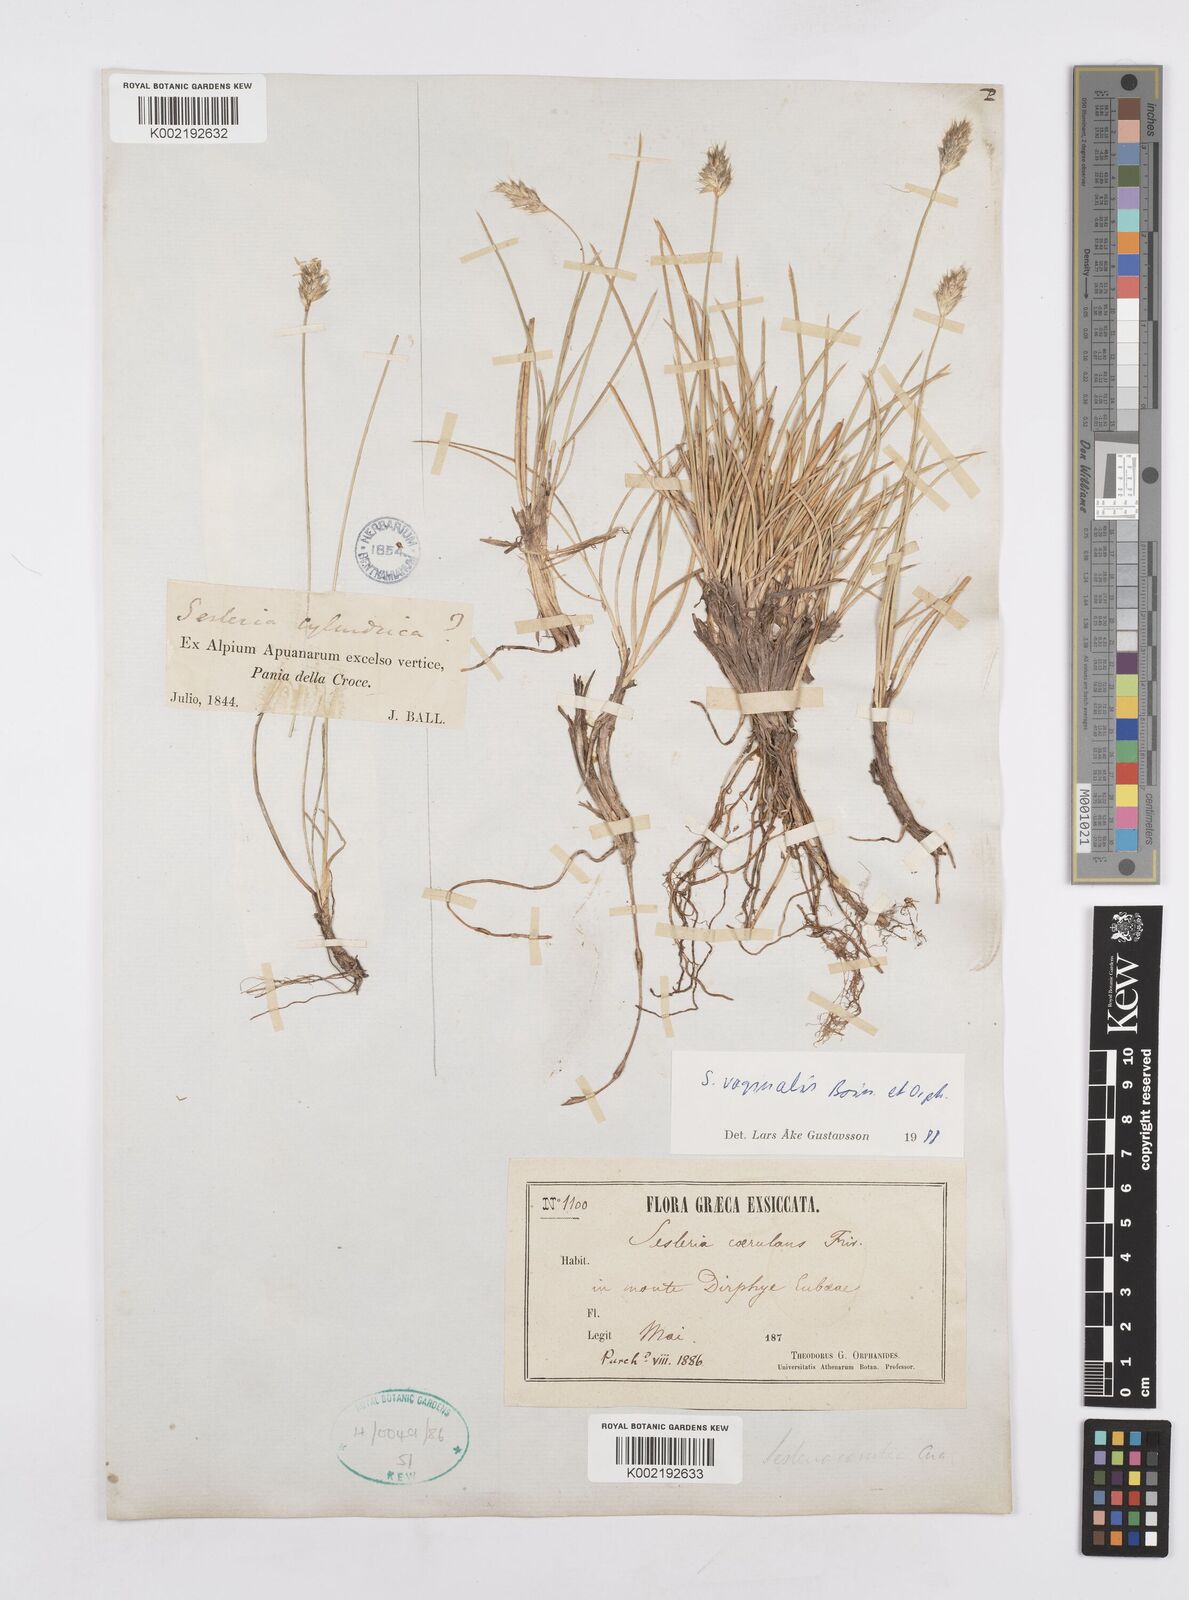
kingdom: Plantae
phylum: Tracheophyta
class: Liliopsida
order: Poales
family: Poaceae
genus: Sesleria
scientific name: Sesleria vaginalis
